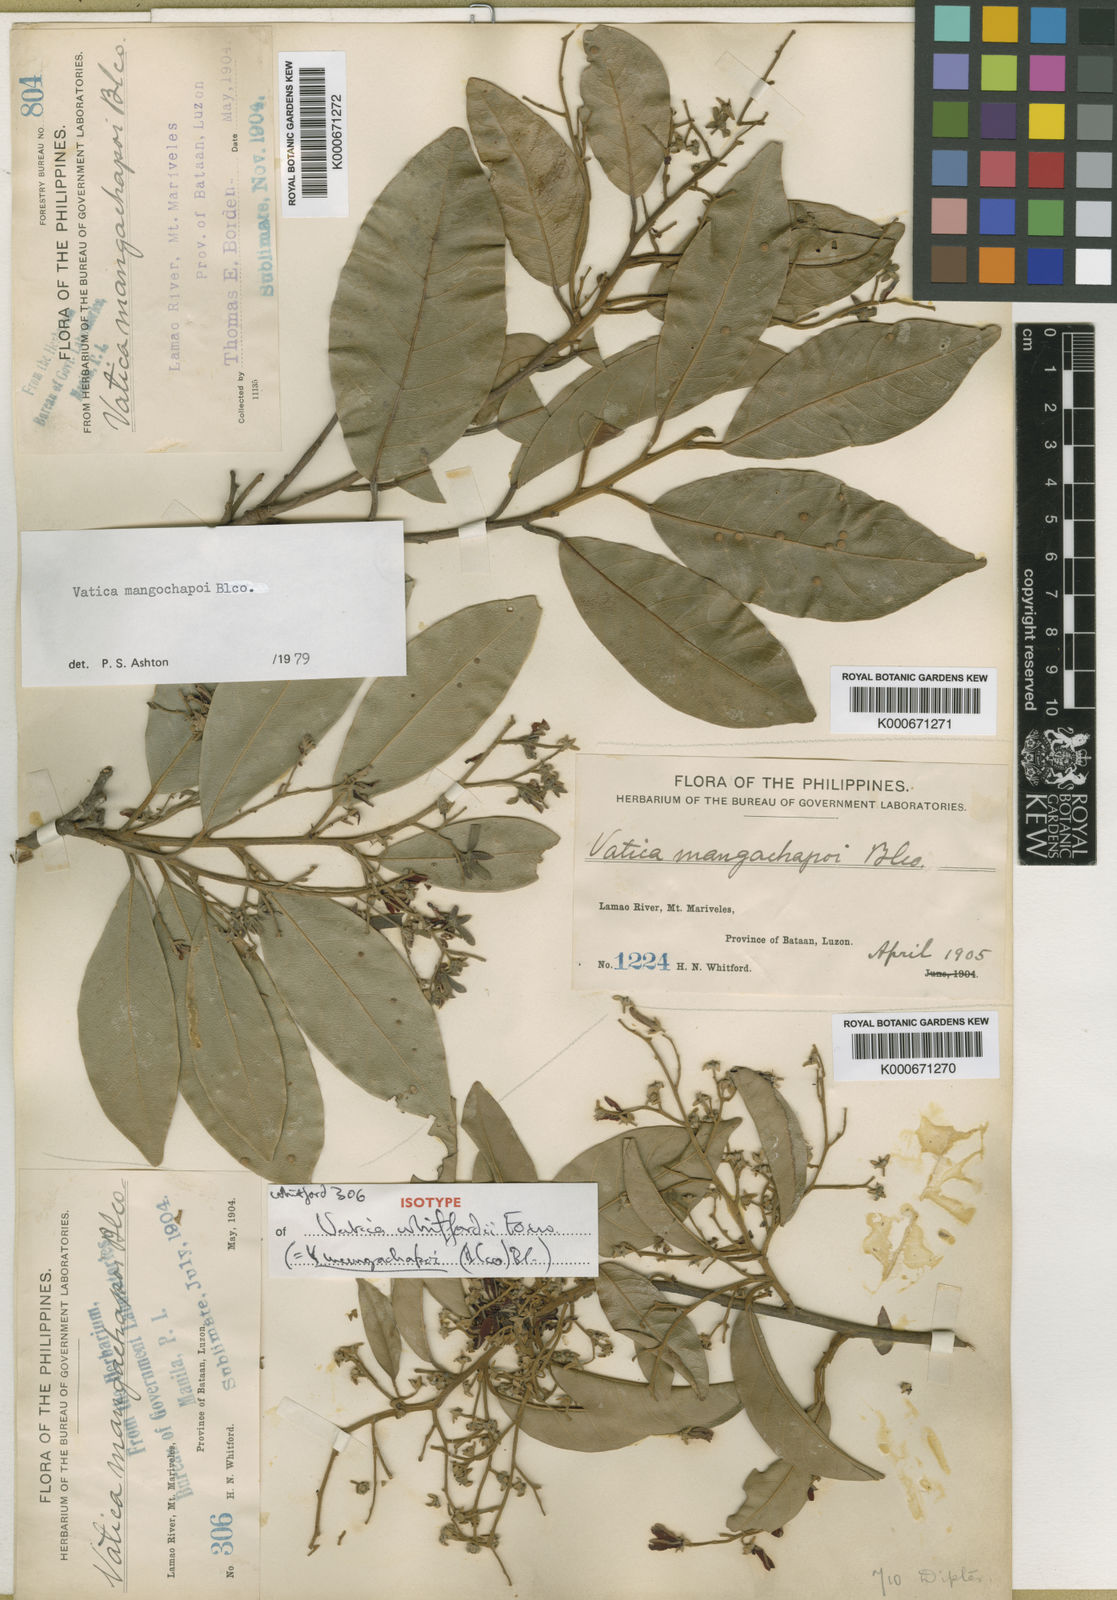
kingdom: Plantae
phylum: Tracheophyta
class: Magnoliopsida
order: Malvales
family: Dipterocarpaceae
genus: Vatica
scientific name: Vatica mangachapoi
